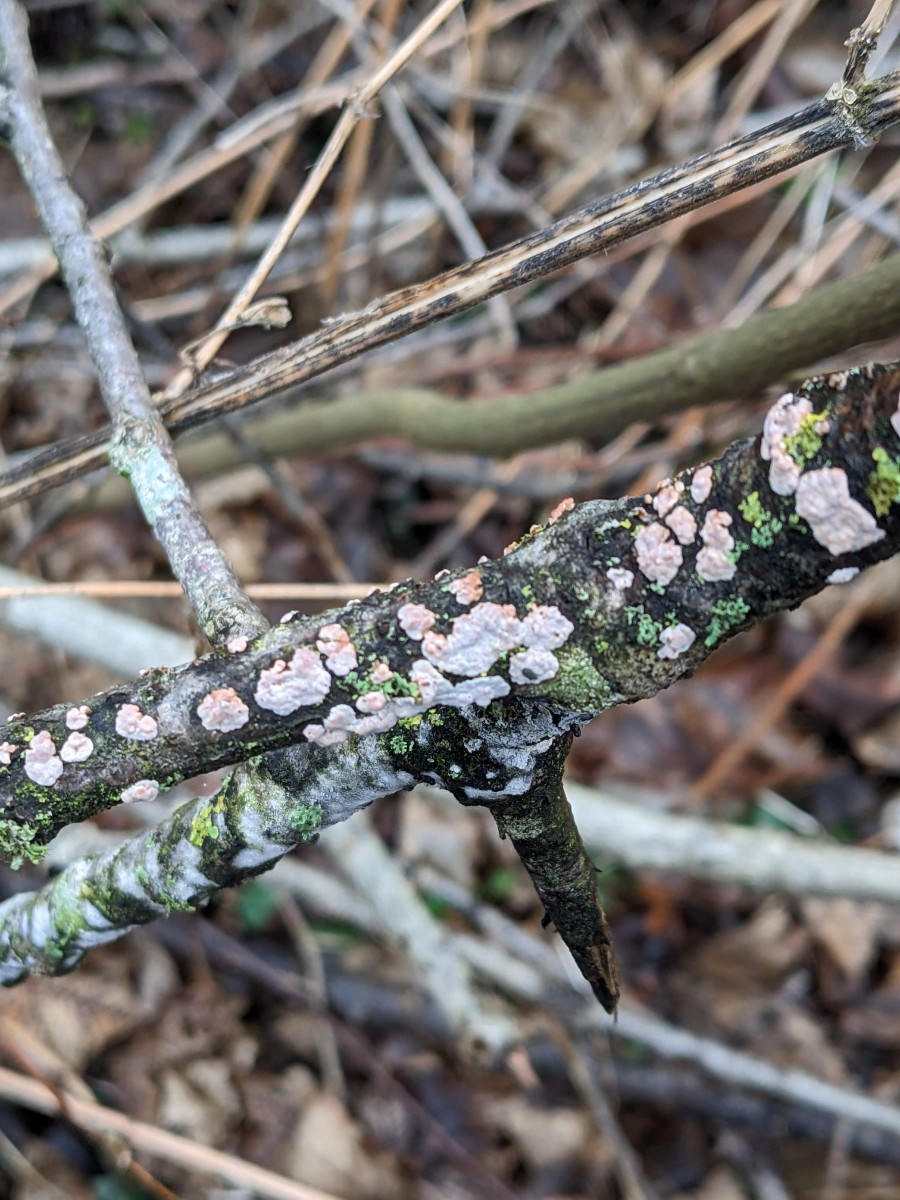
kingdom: Fungi
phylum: Basidiomycota
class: Agaricomycetes
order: Russulales
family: Peniophoraceae
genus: Peniophora
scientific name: Peniophora polygonia
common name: polygon-voksskind
